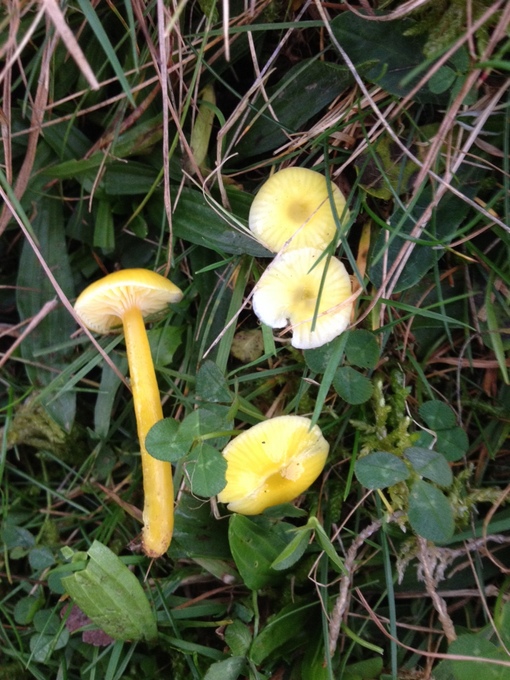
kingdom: Fungi
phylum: Basidiomycota
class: Agaricomycetes
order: Agaricales
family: Hygrophoraceae
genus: Hygrocybe
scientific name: Hygrocybe glutinipes
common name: slimstokket vokshat
